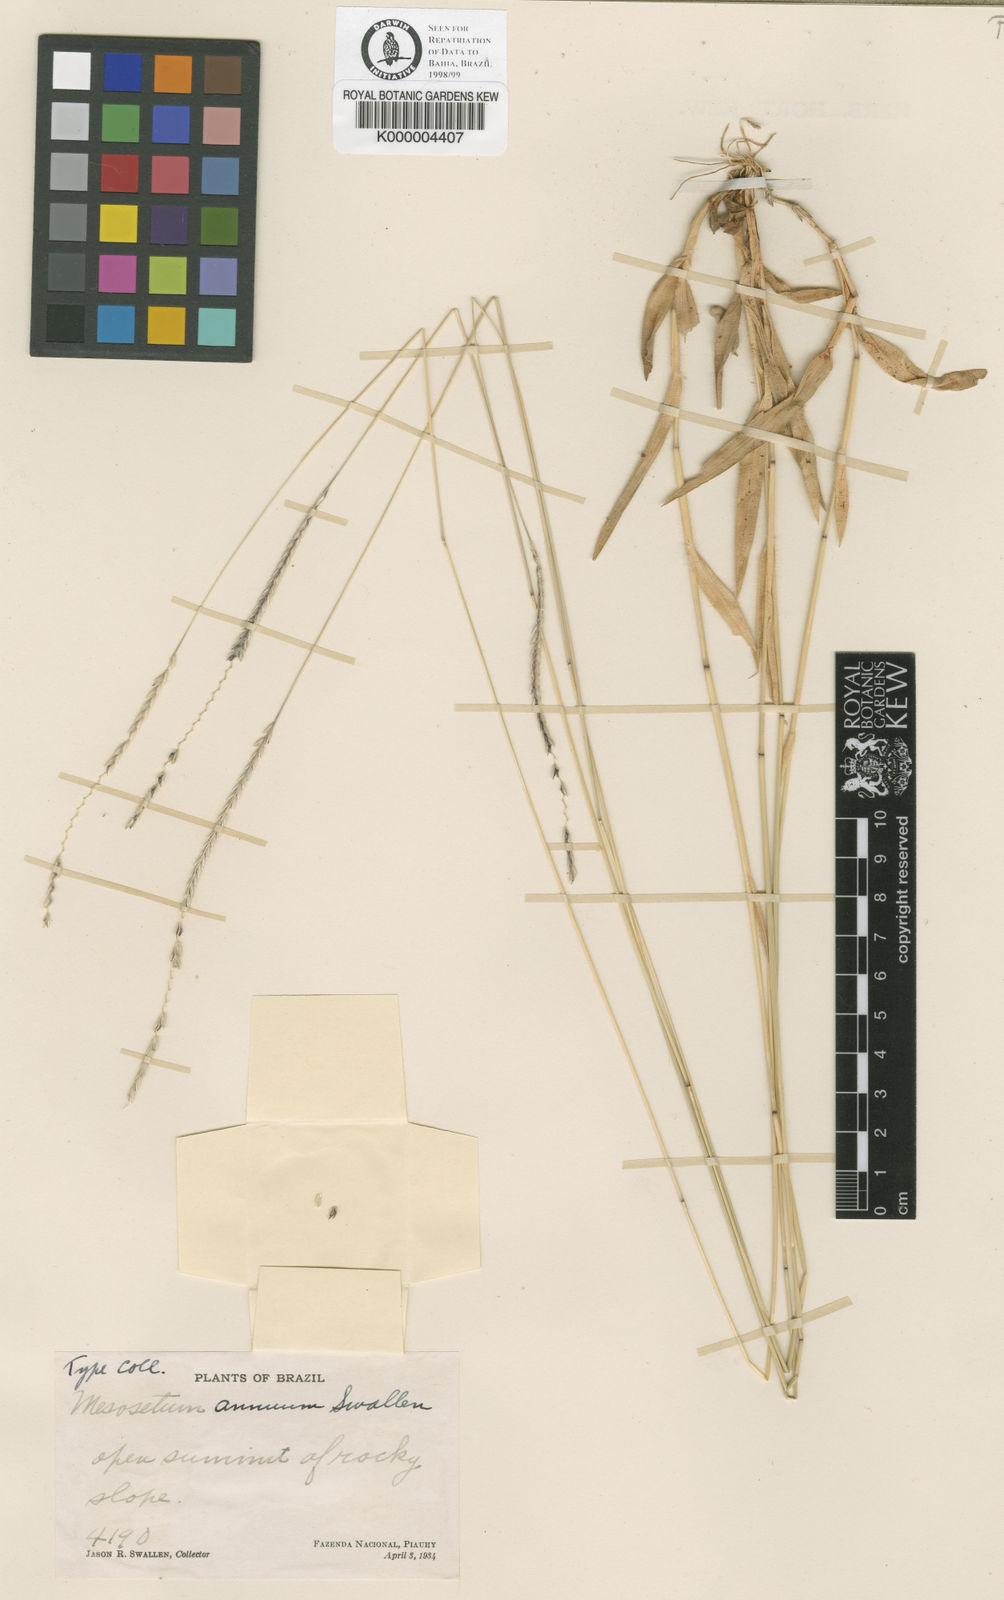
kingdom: Plantae
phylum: Tracheophyta
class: Liliopsida
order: Poales
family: Poaceae
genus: Mesosetum
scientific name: Mesosetum annuum
